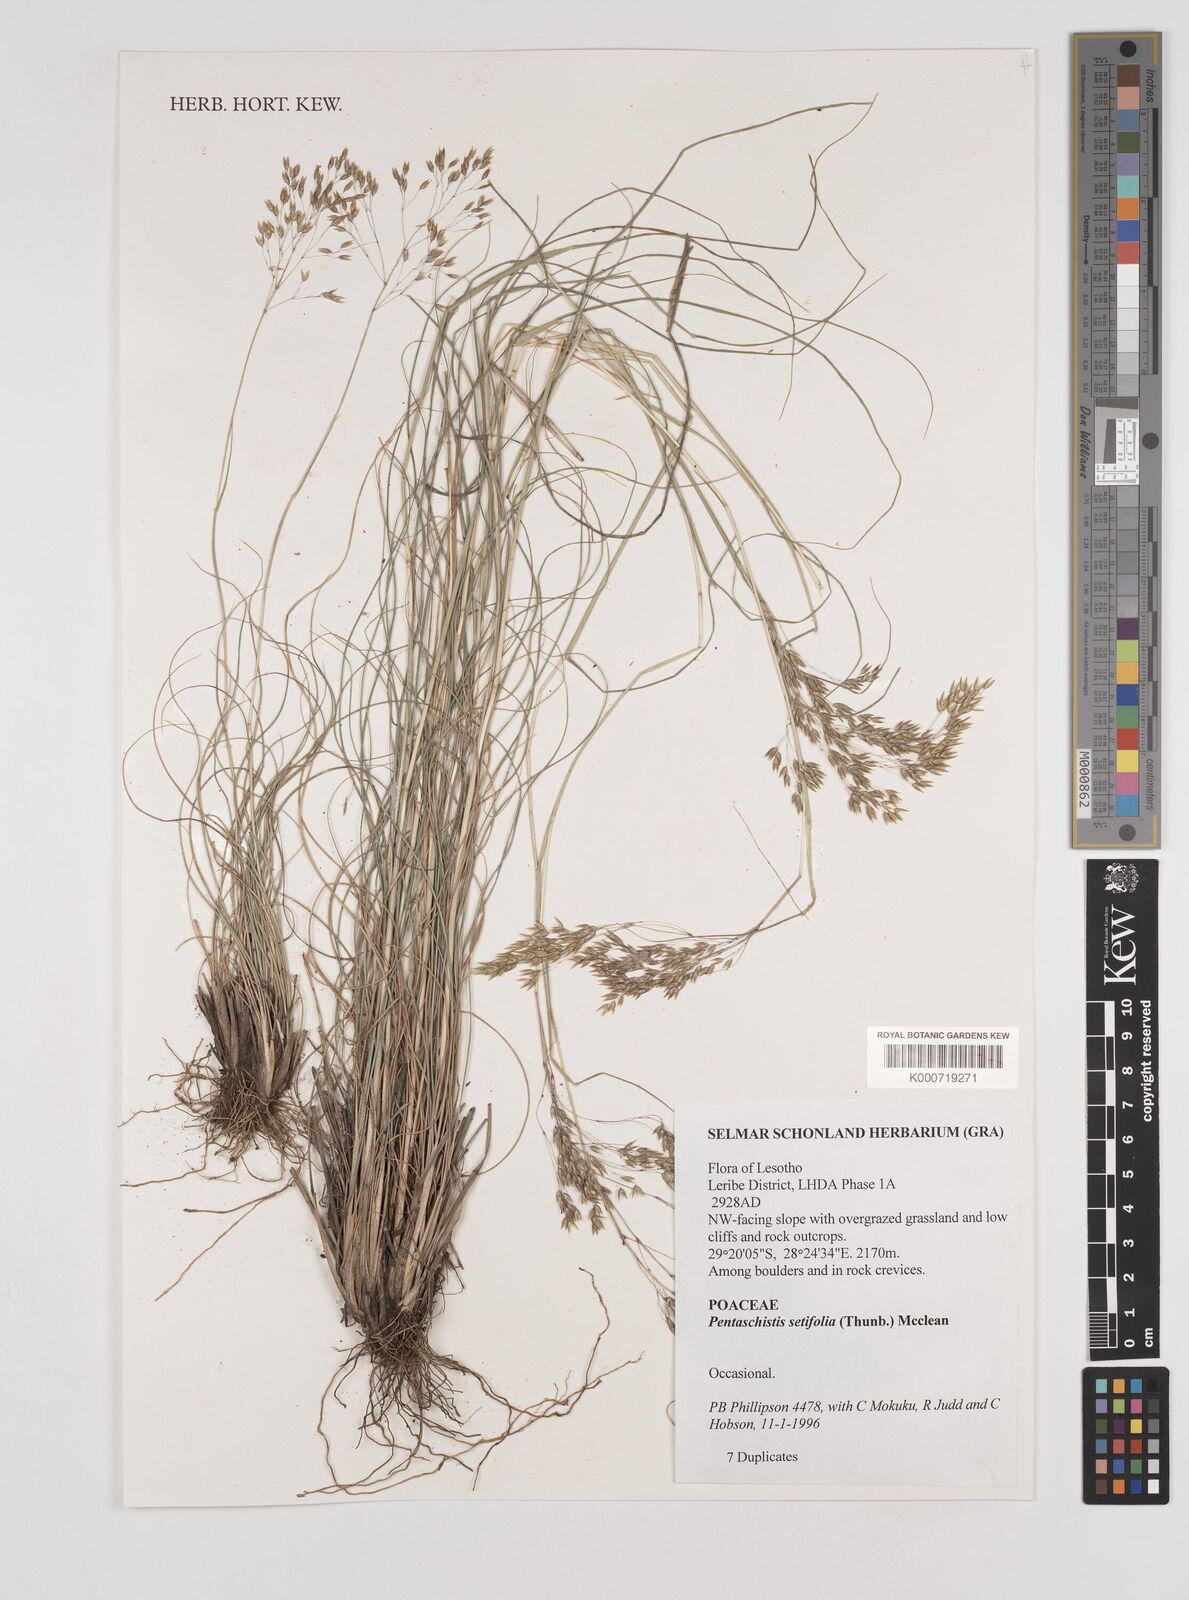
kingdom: Plantae
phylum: Tracheophyta
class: Liliopsida
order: Poales
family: Poaceae
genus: Pentameris
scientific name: Pentameris setifolia
